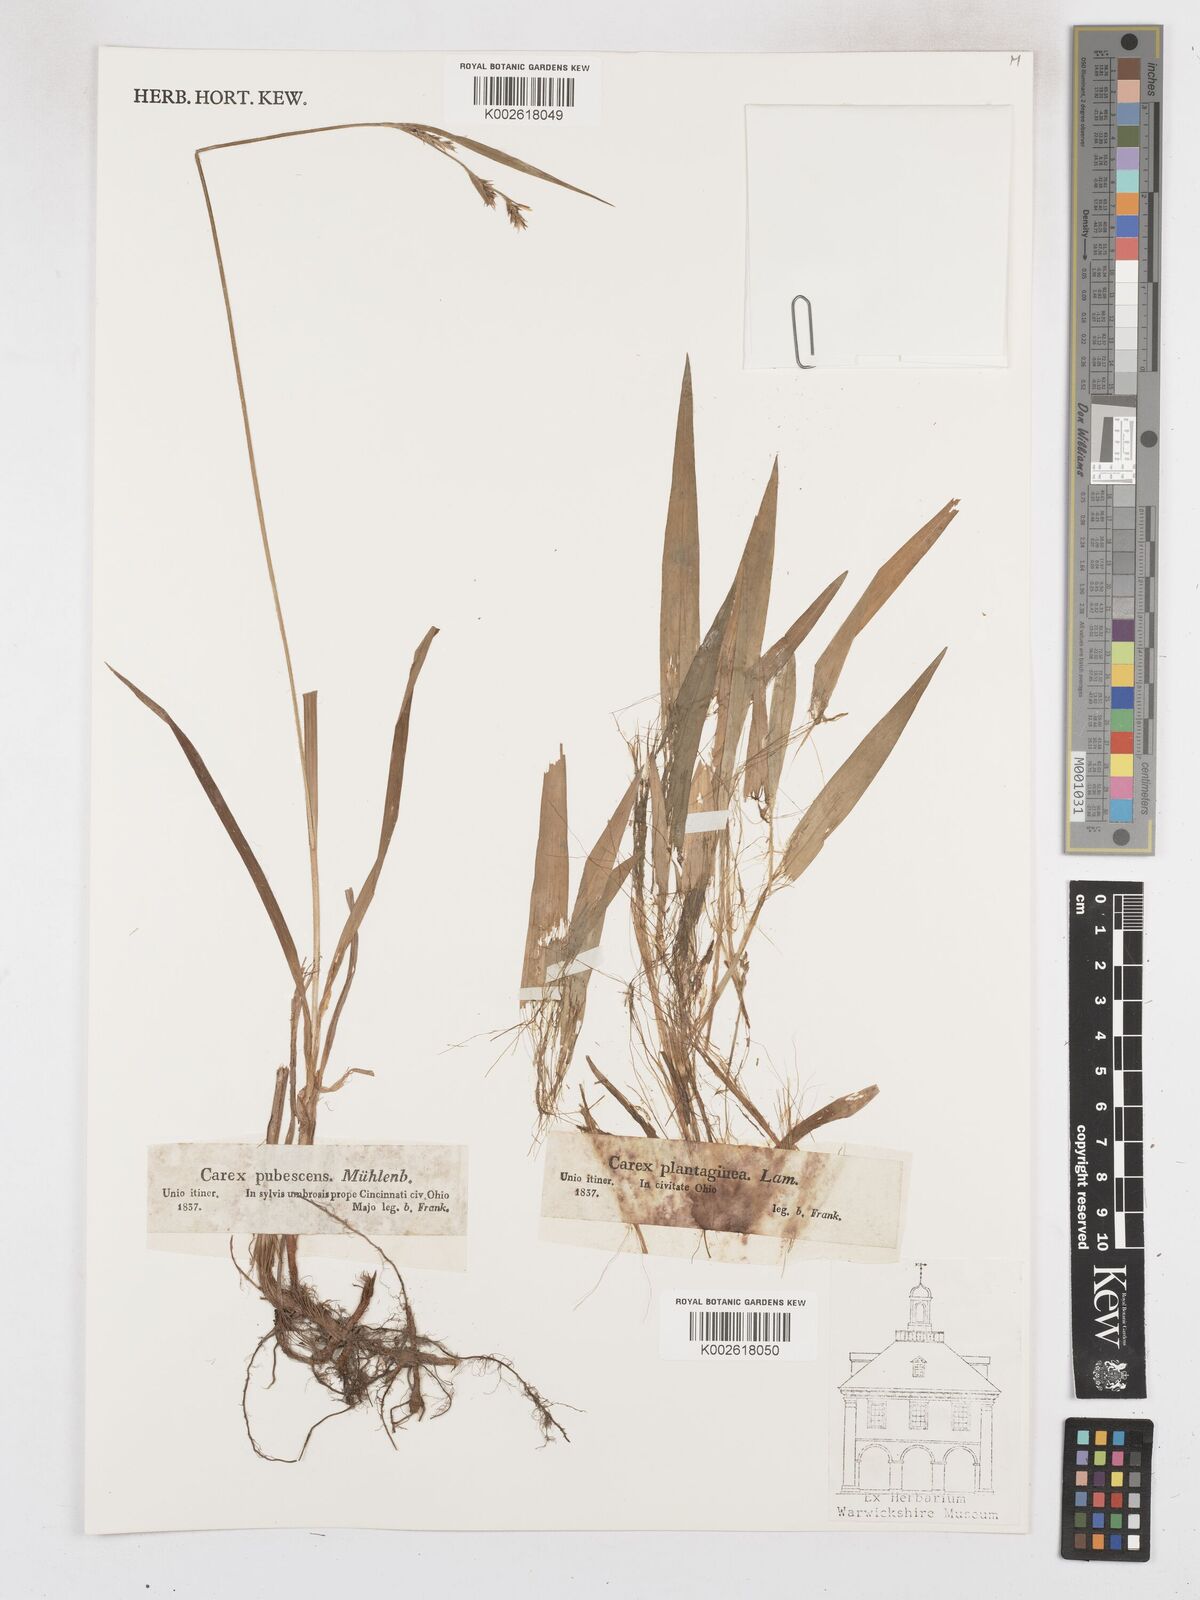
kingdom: Plantae
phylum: Tracheophyta
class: Liliopsida
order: Poales
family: Cyperaceae
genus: Carex
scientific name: Carex hirtifolia
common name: Hairy sedge
